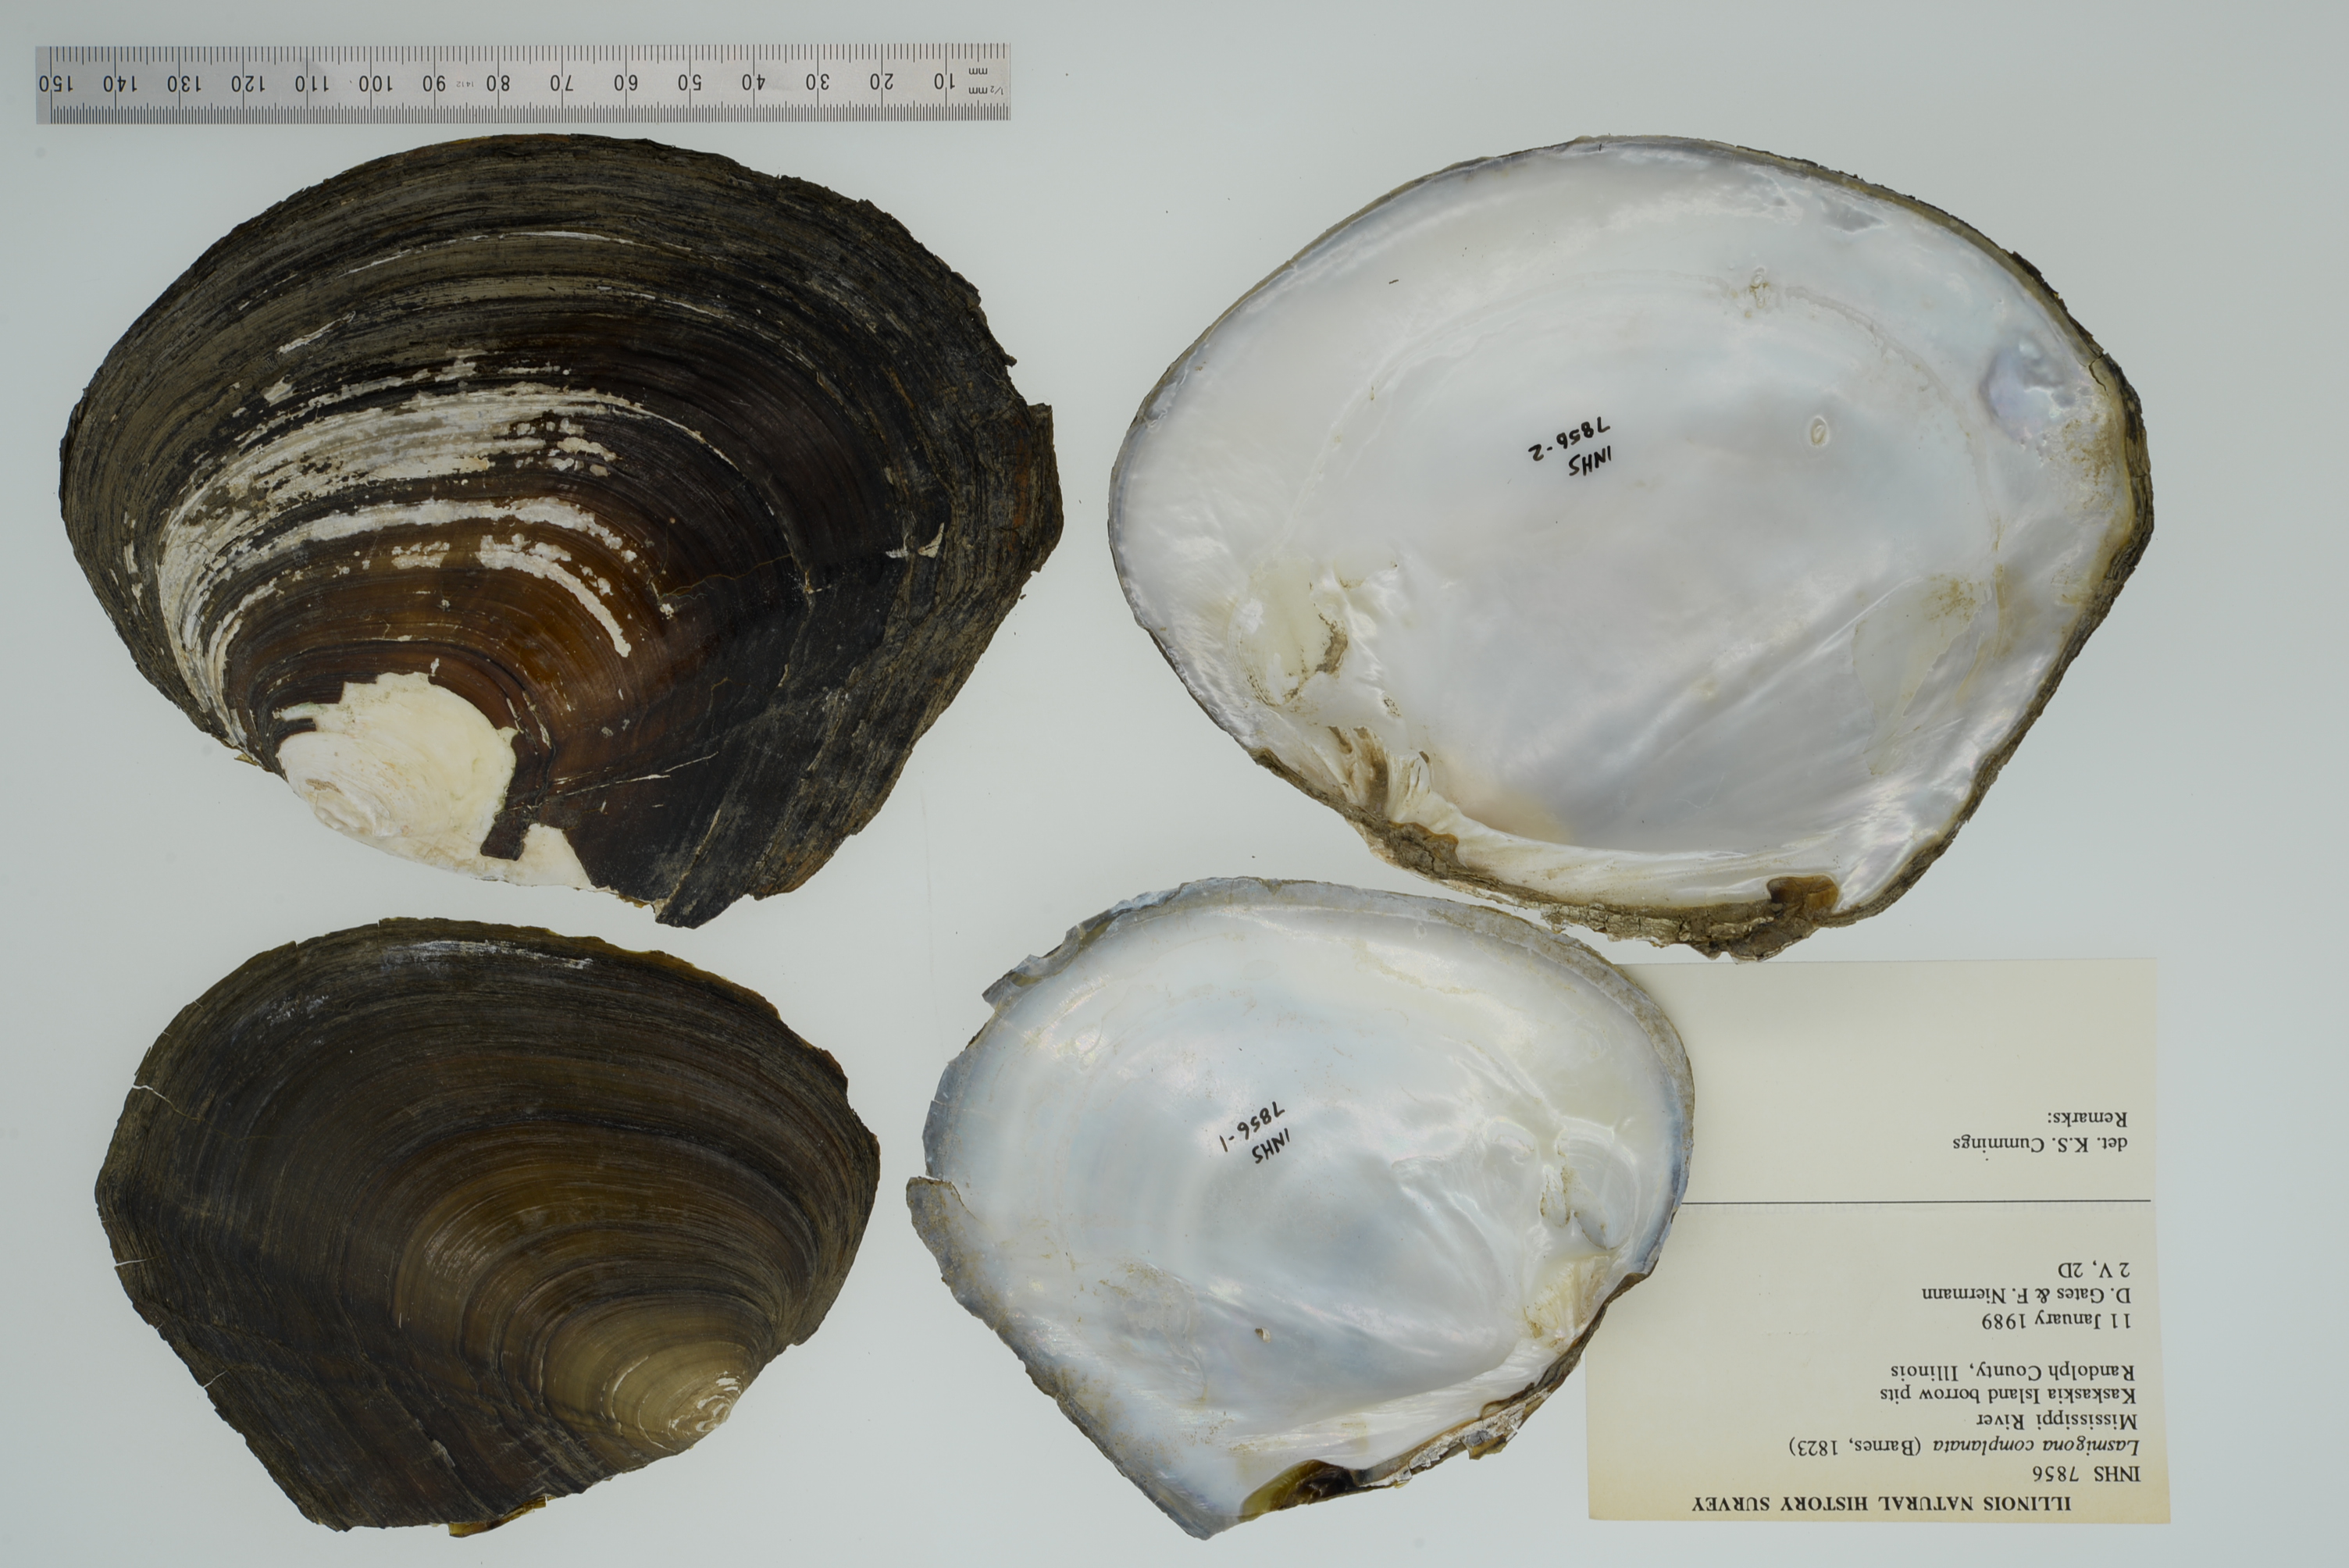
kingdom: Animalia
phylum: Mollusca
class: Bivalvia
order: Unionida
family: Unionidae
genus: Lasmigona
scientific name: Lasmigona complanata
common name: White heelsplitter
